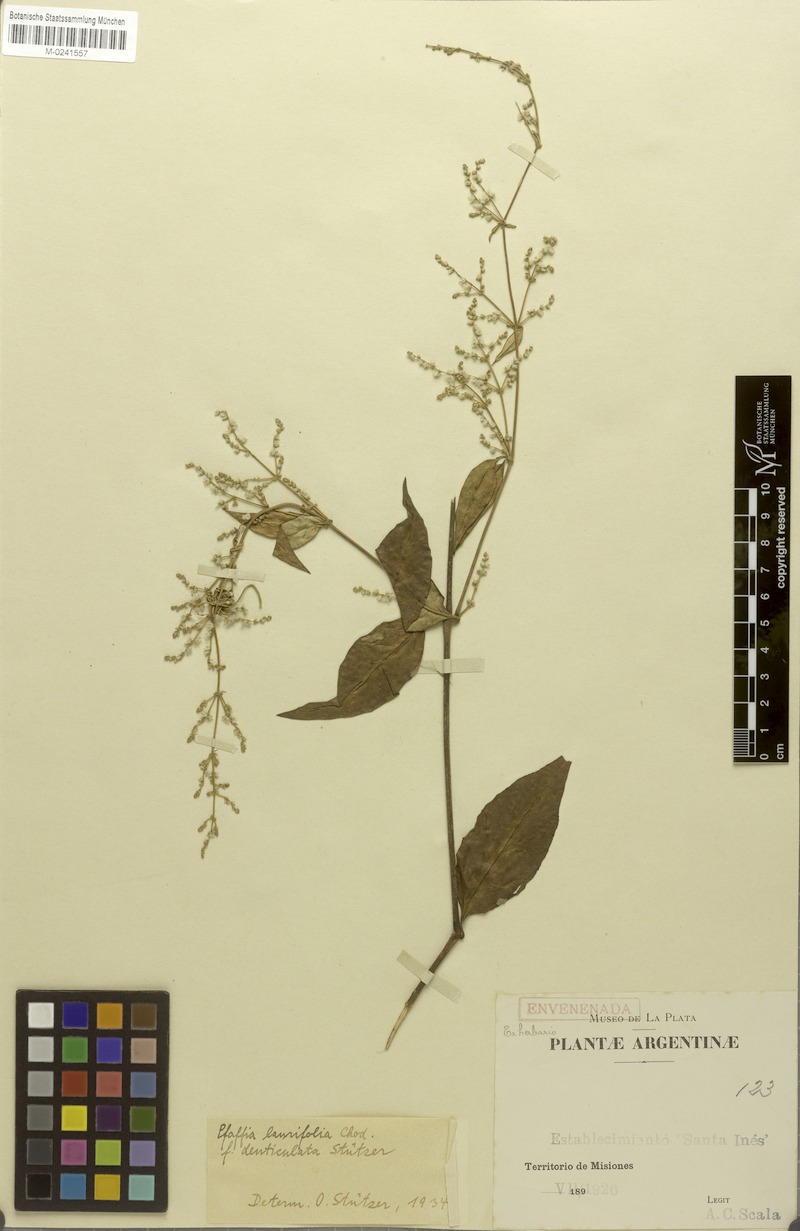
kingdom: Plantae
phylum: Tracheophyta
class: Magnoliopsida
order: Caryophyllales
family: Amaranthaceae
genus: Hebanthe
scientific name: Hebanthe erianthos
